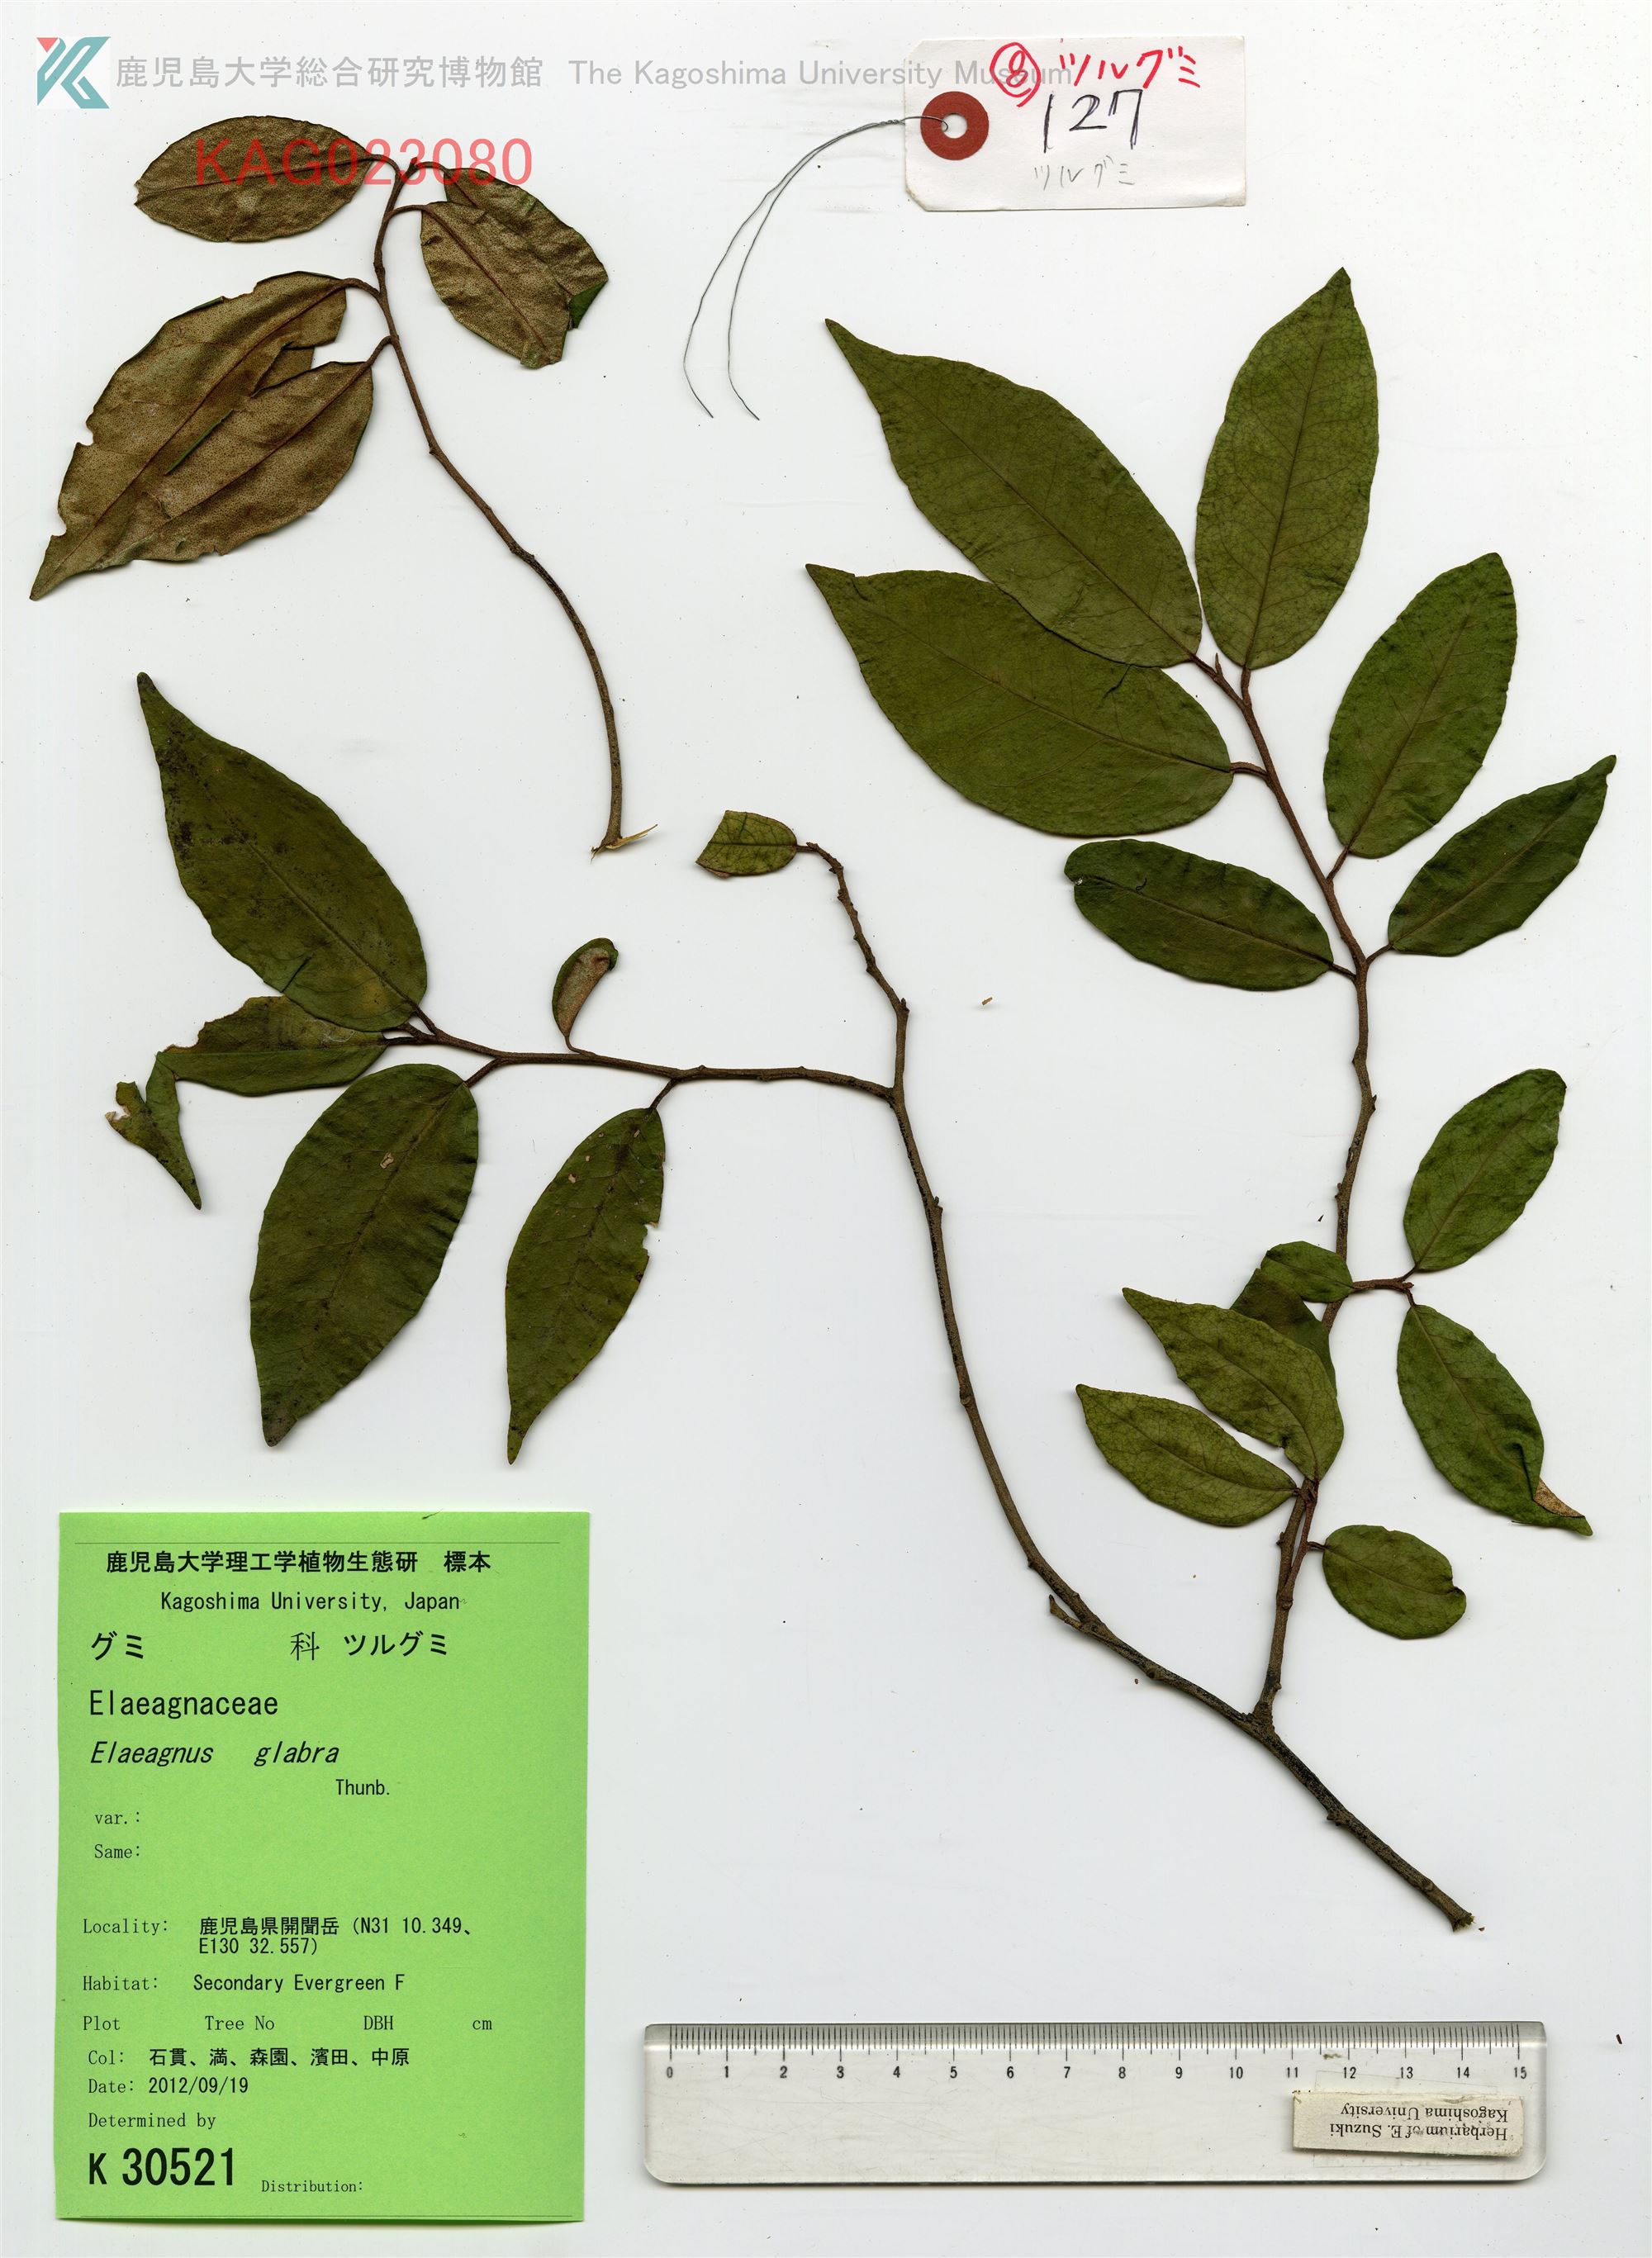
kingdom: Plantae
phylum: Tracheophyta
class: Magnoliopsida
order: Rosales
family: Elaeagnaceae
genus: Elaeagnus
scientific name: Elaeagnus glabra
